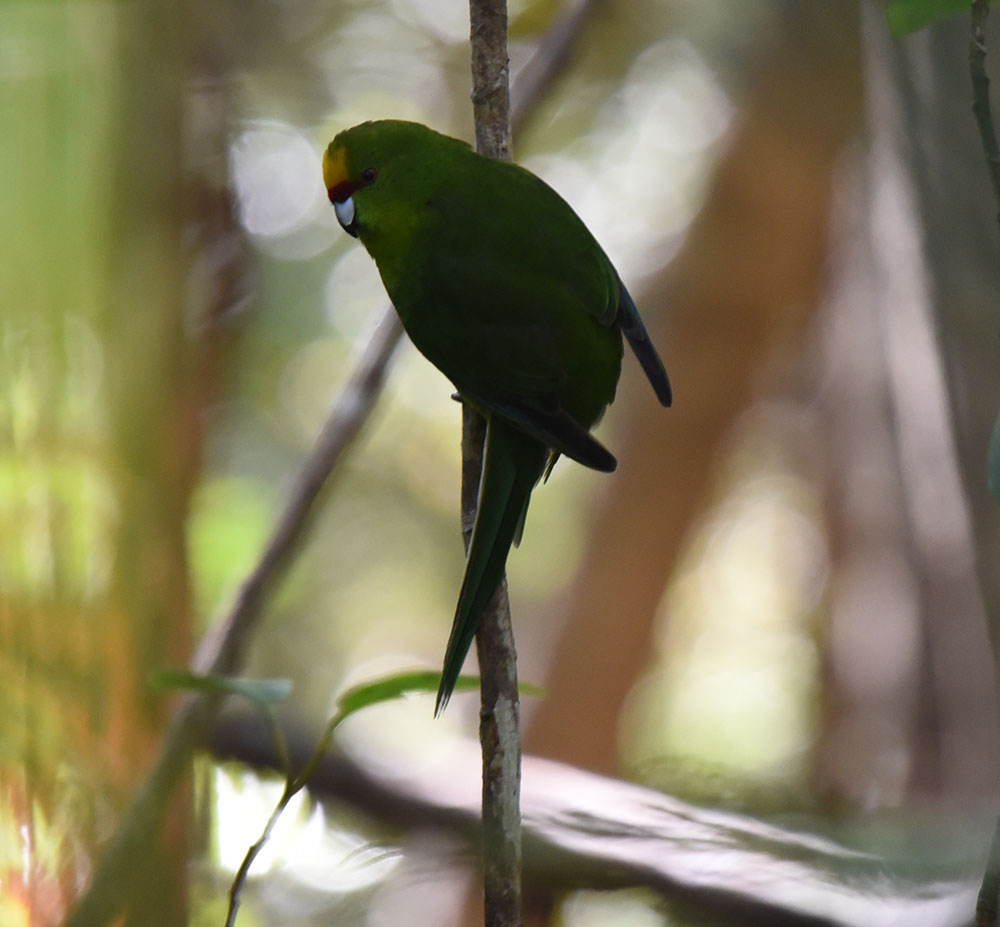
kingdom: Animalia
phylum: Chordata
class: Aves
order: Psittaciformes
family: Psittacidae
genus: Cyanoramphus
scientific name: Cyanoramphus auriceps
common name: Yellow-crowned parakeet
